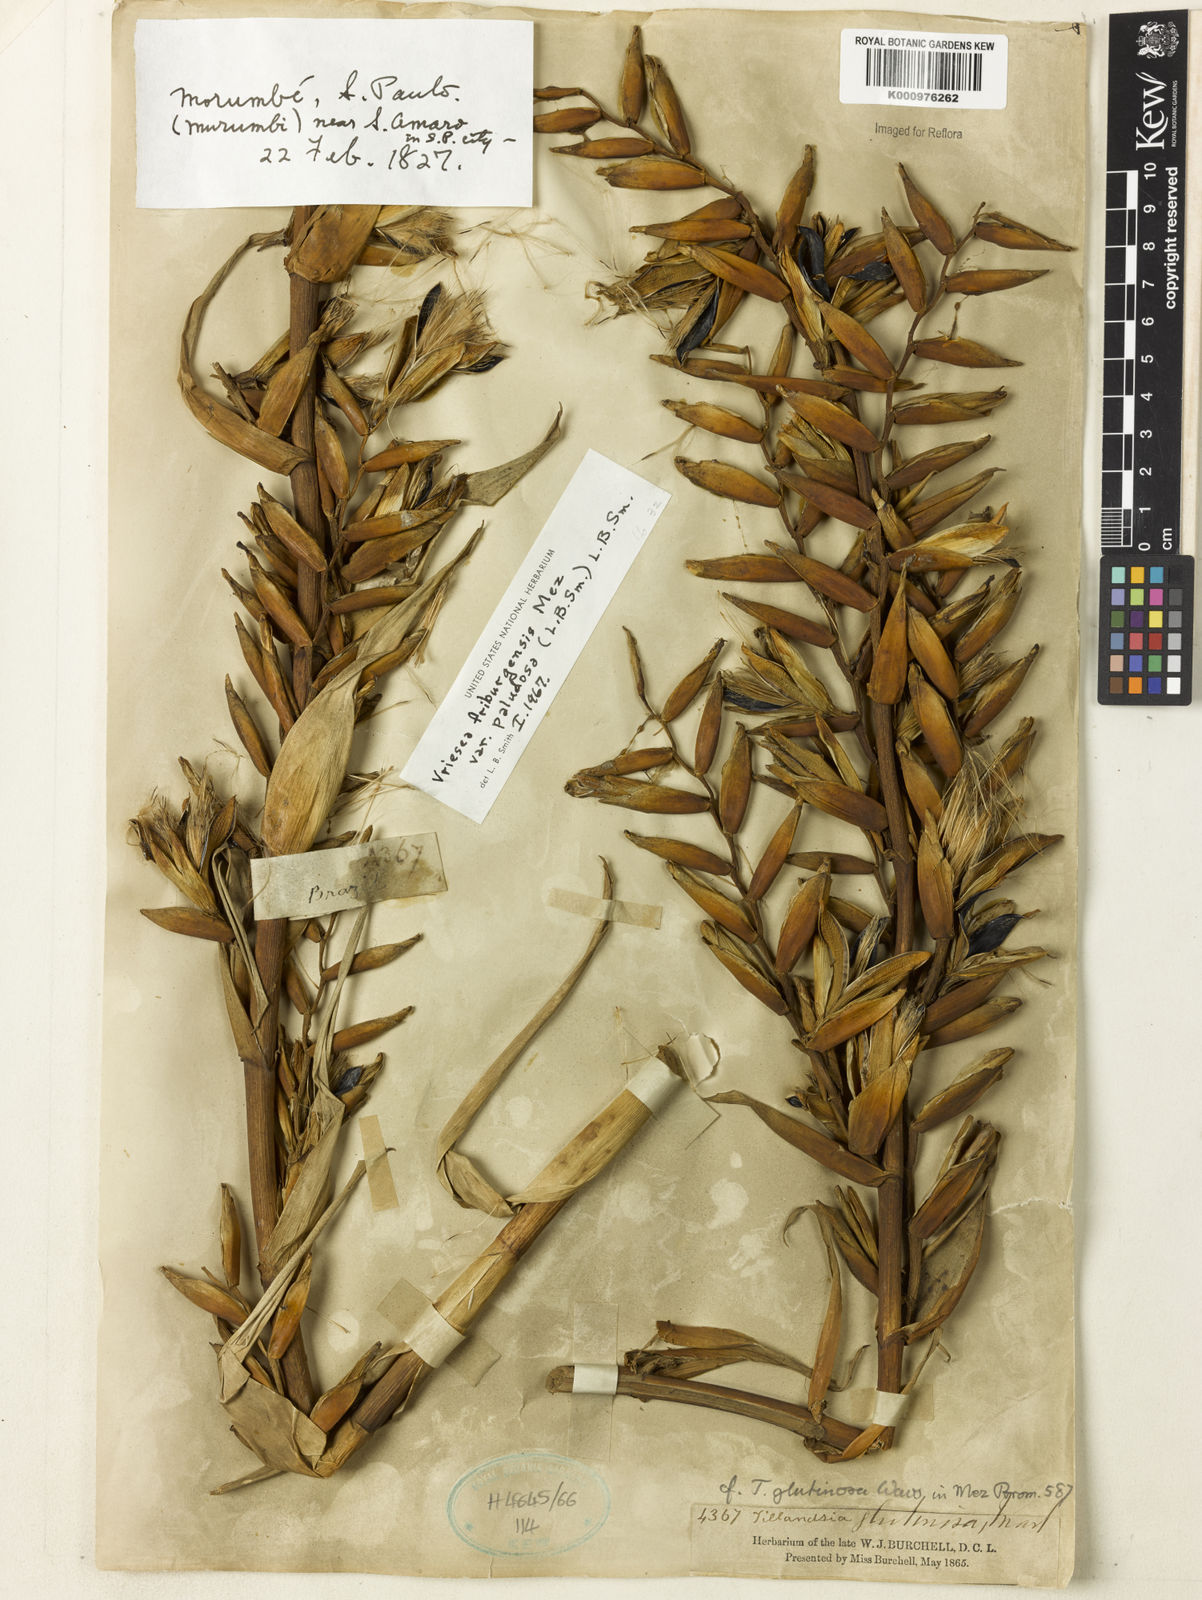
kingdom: Plantae
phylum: Tracheophyta
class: Liliopsida
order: Poales
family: Bromeliaceae
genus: Vriesea
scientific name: Vriesea friburgensis
